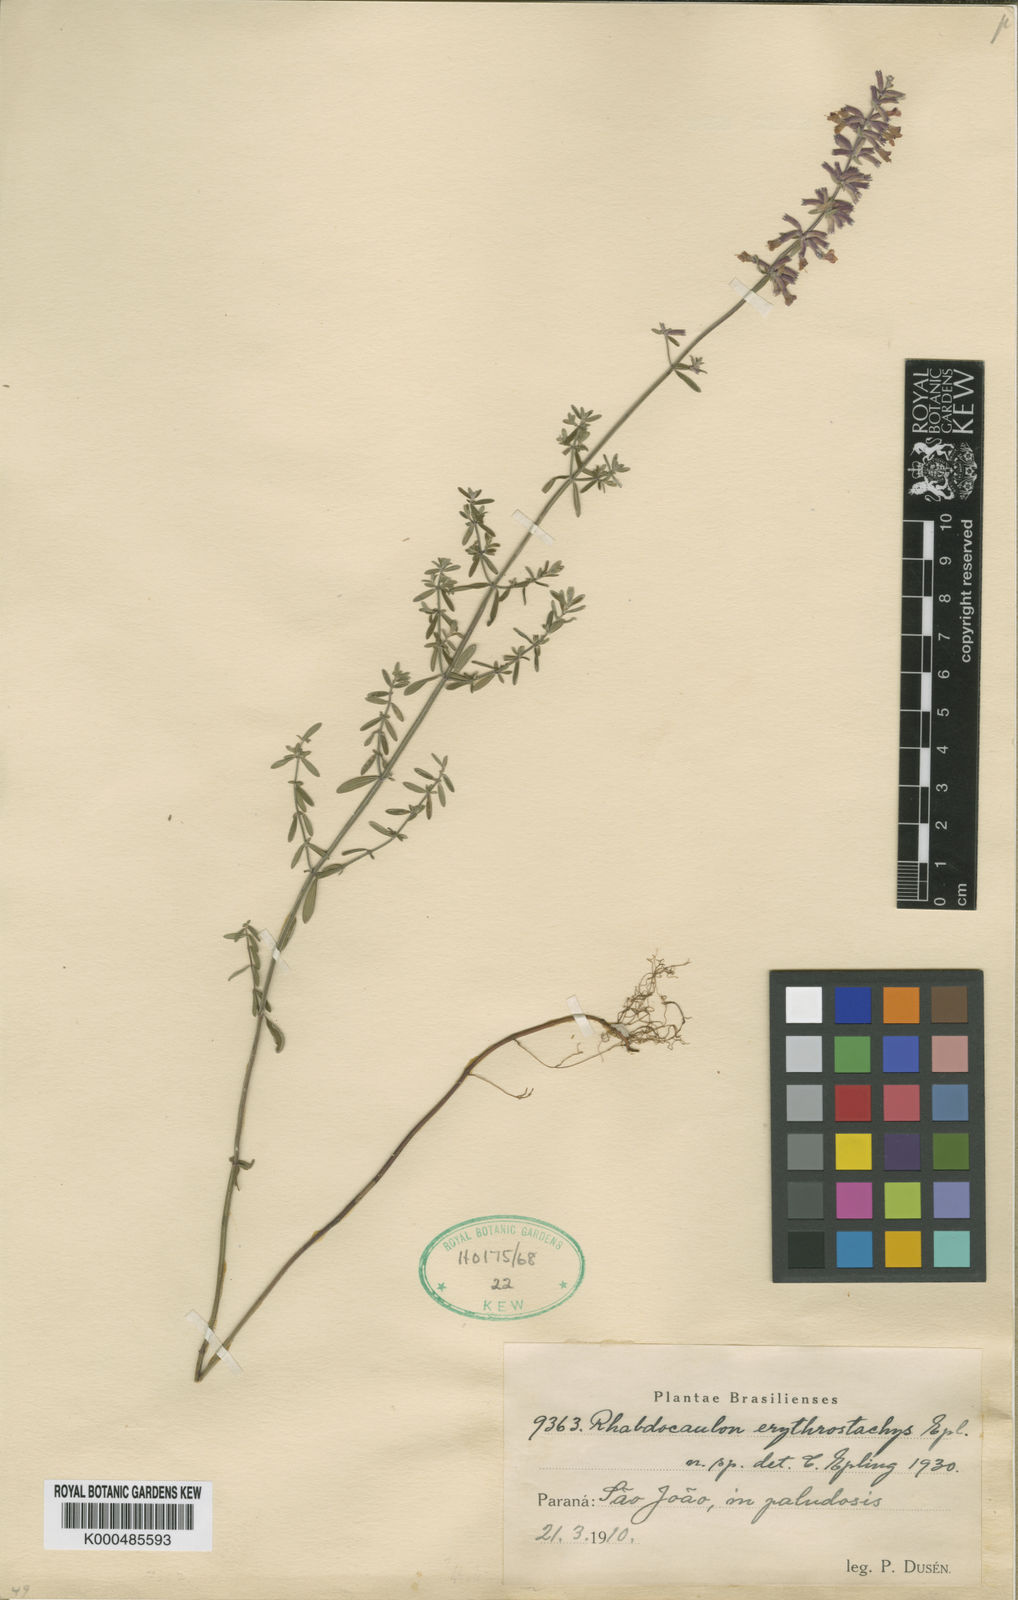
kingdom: Plantae
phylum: Tracheophyta
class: Magnoliopsida
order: Lamiales
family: Lamiaceae
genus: Rhabdocaulon
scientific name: Rhabdocaulon erythrostachys
